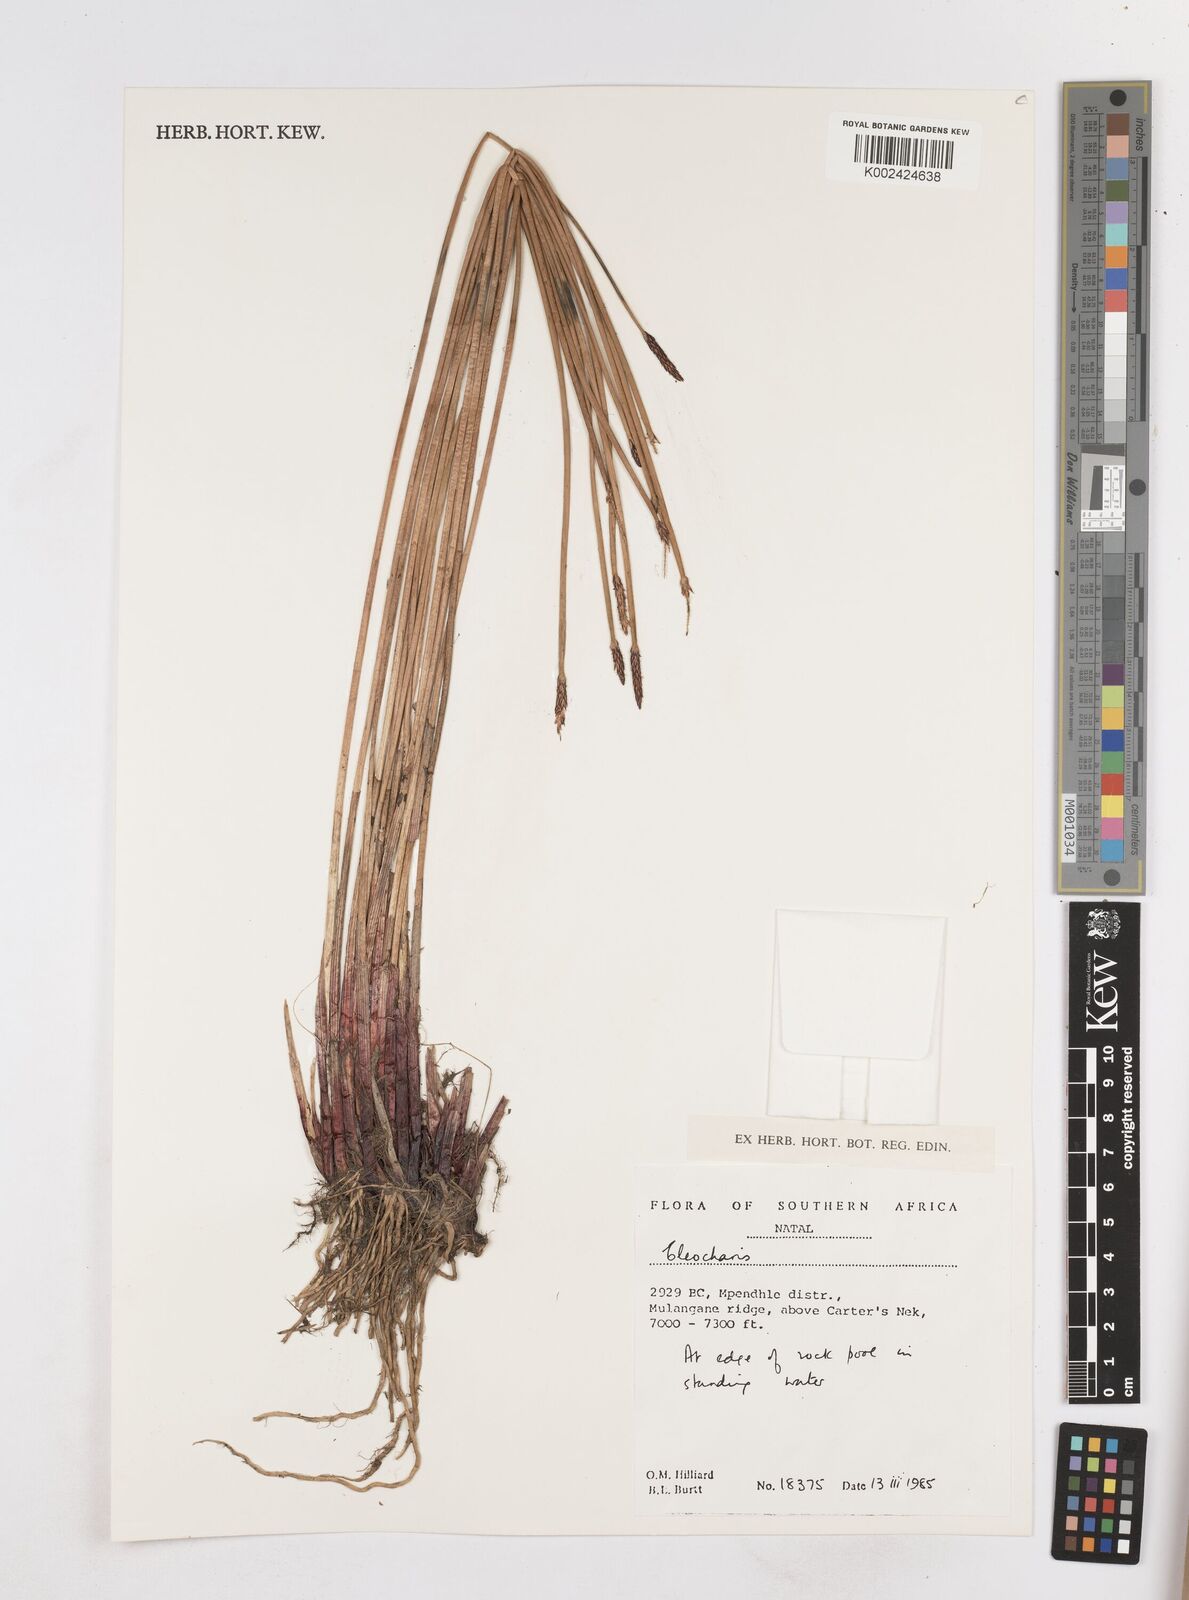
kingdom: Plantae
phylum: Tracheophyta
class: Liliopsida
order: Poales
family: Cyperaceae
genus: Eleocharis
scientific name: Eleocharis
